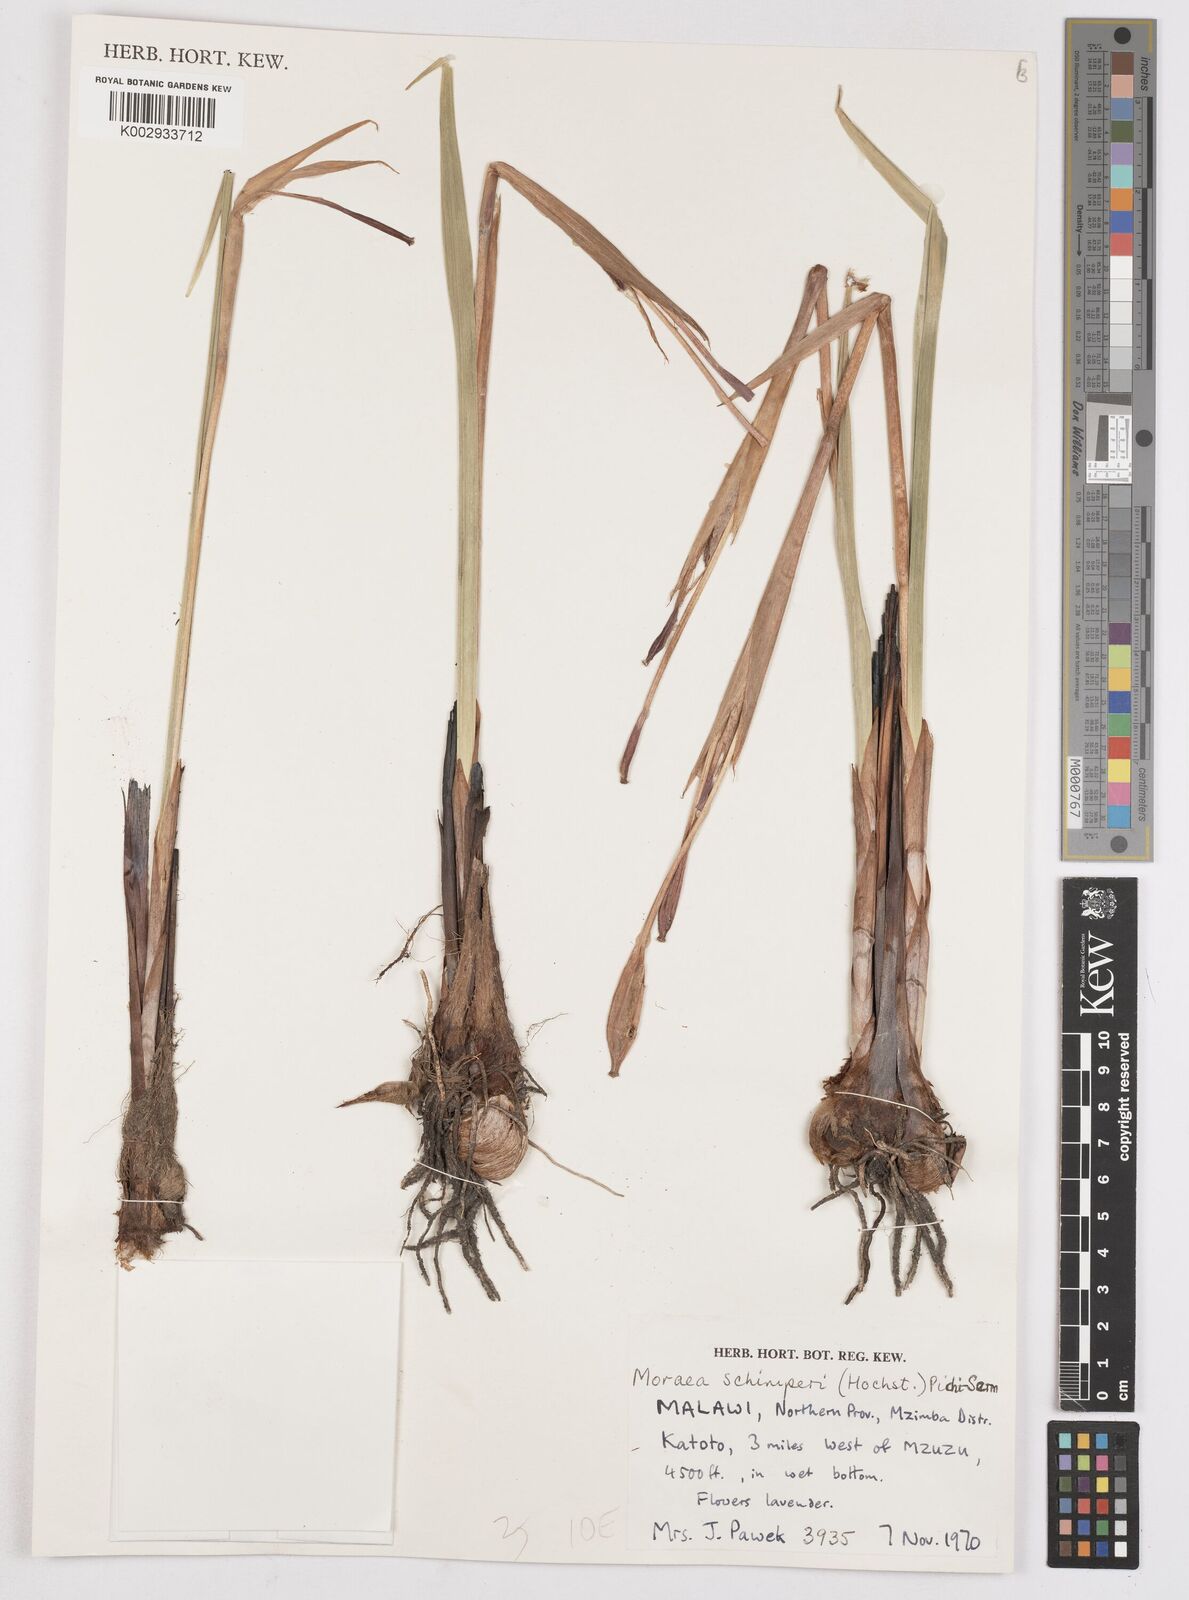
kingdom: Plantae
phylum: Tracheophyta
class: Liliopsida
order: Asparagales
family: Iridaceae
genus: Moraea
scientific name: Moraea schimperi
